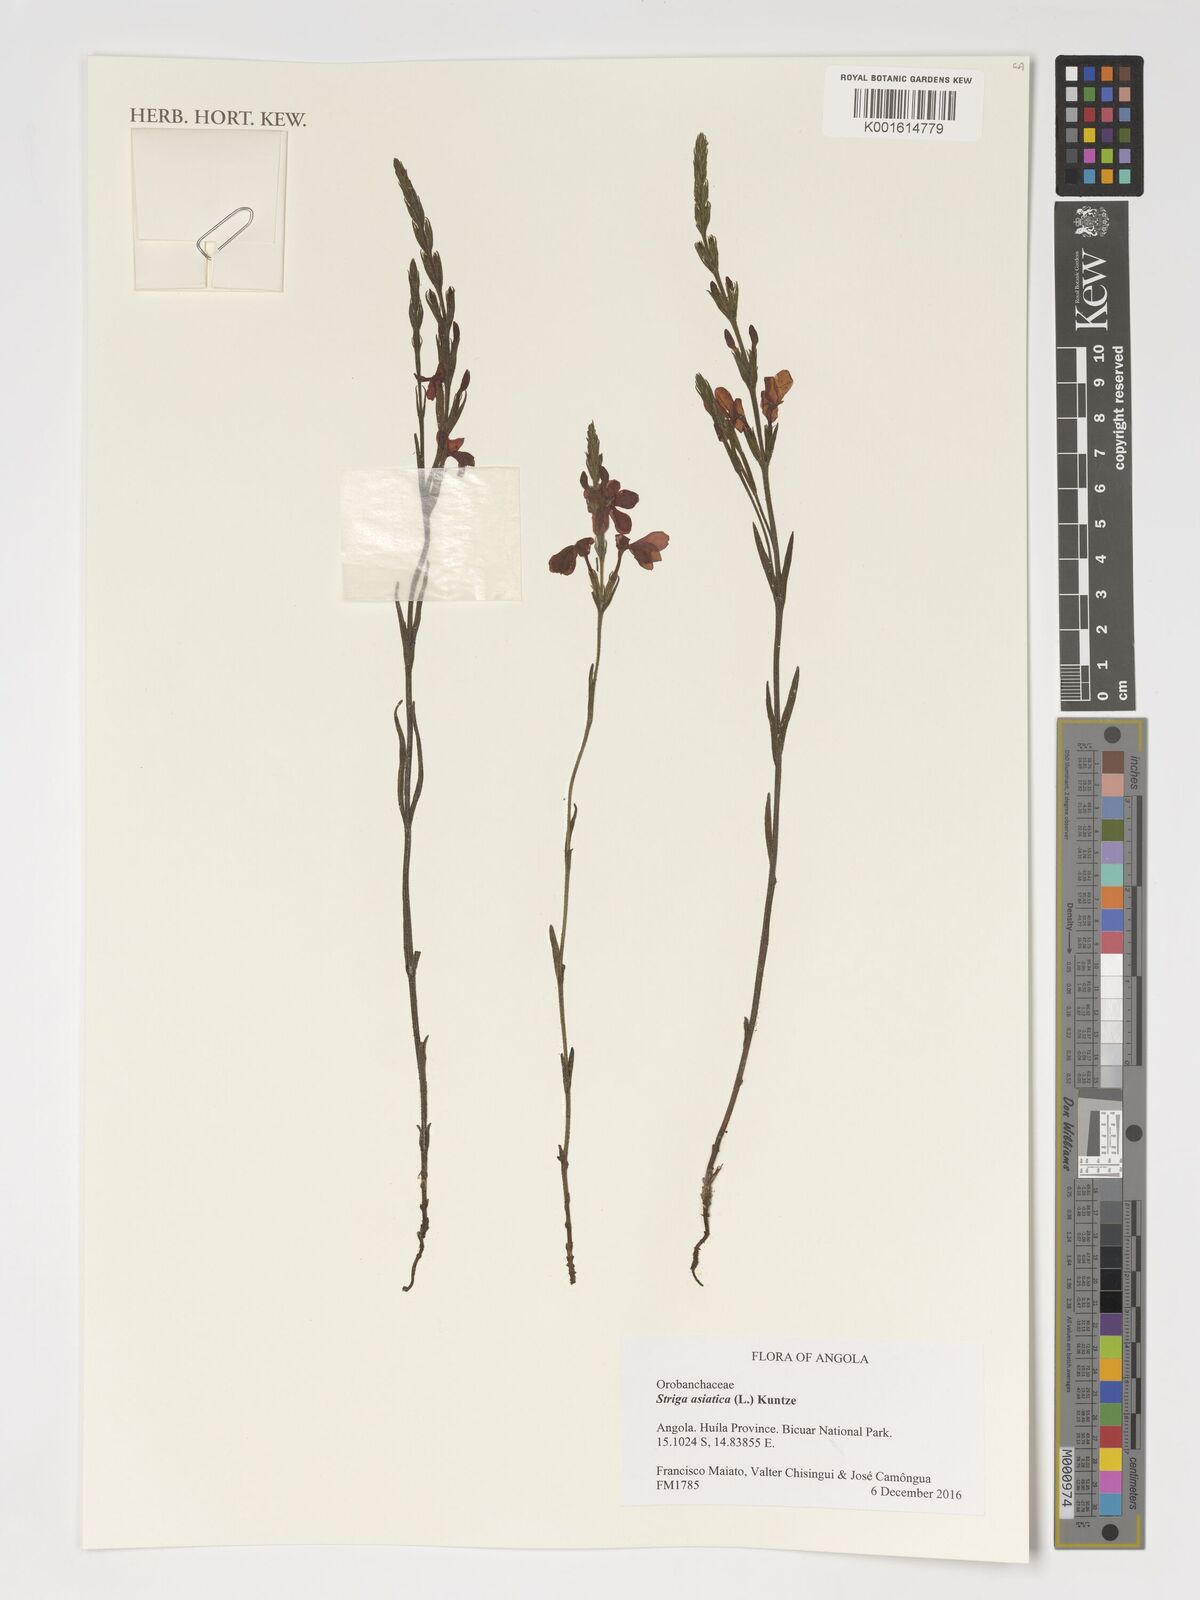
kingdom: Plantae
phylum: Tracheophyta
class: Magnoliopsida
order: Lamiales
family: Orobanchaceae
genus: Striga
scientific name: Striga asiatica
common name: Asiatic witchweed
